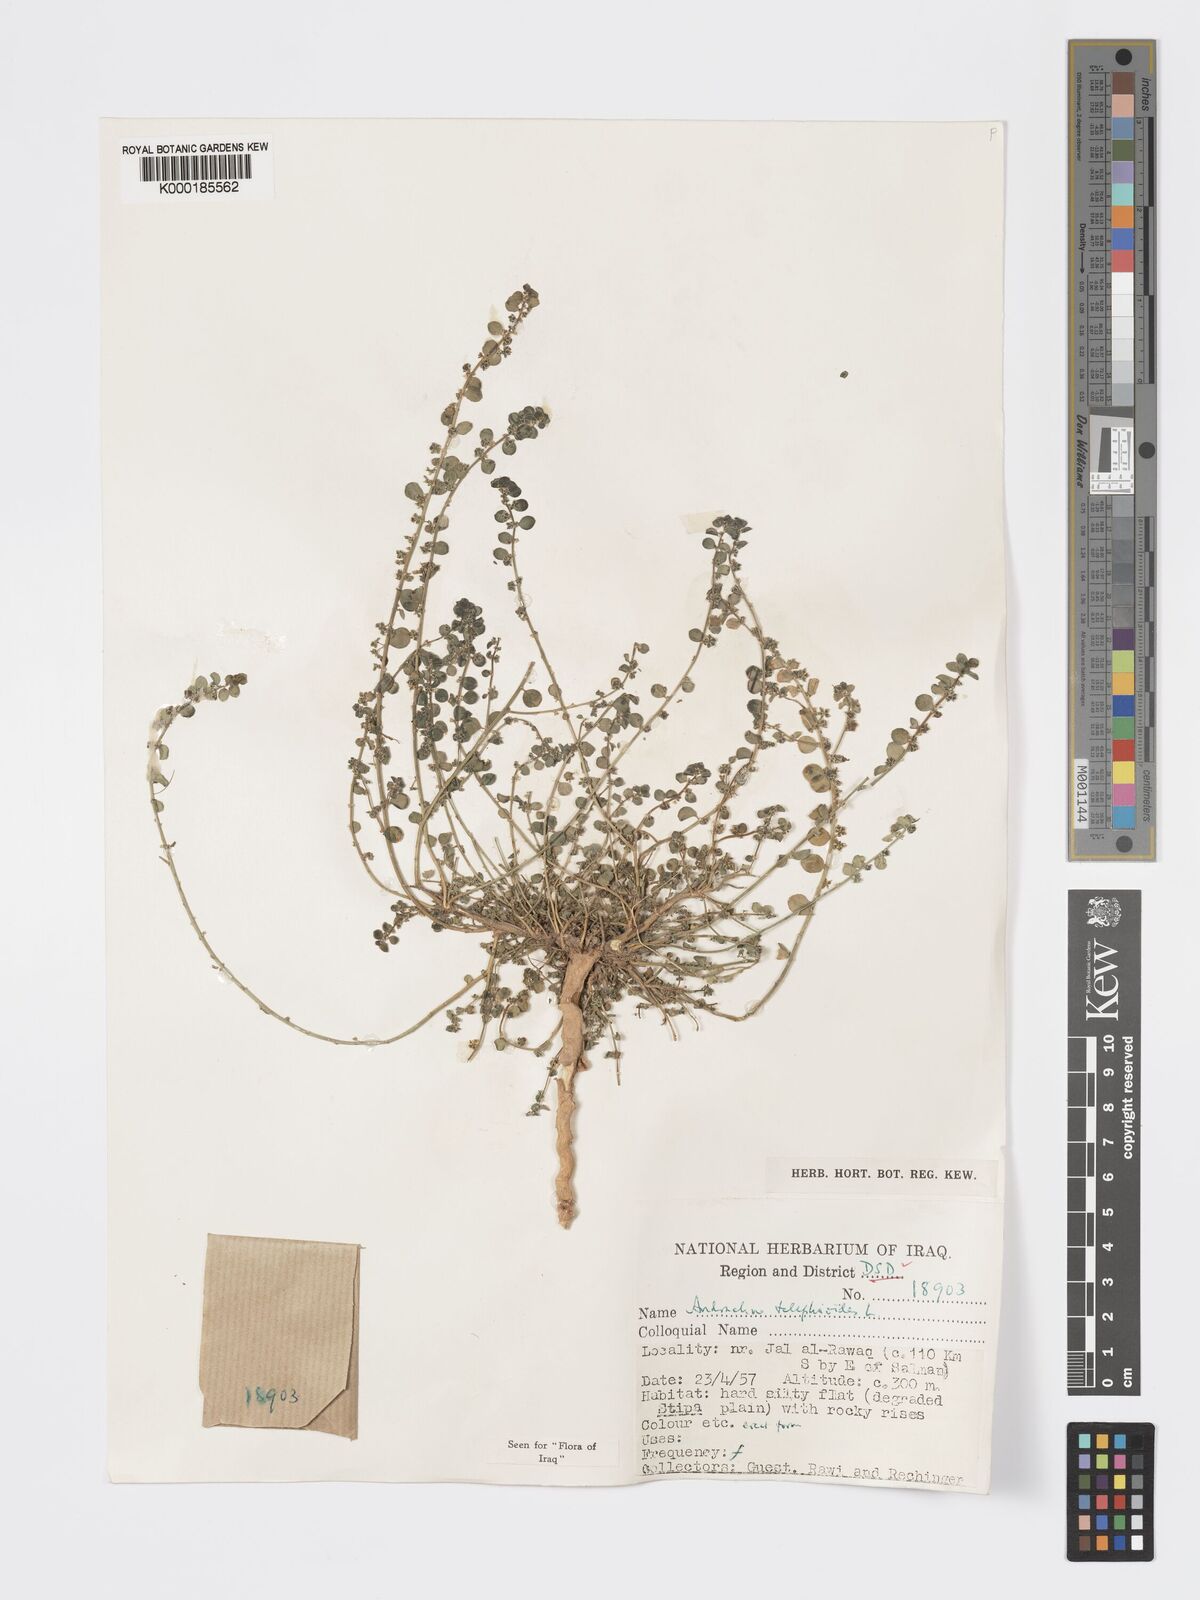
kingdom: Plantae
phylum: Tracheophyta
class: Magnoliopsida
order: Malpighiales
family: Phyllanthaceae
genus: Andrachne
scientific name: Andrachne telephioides
